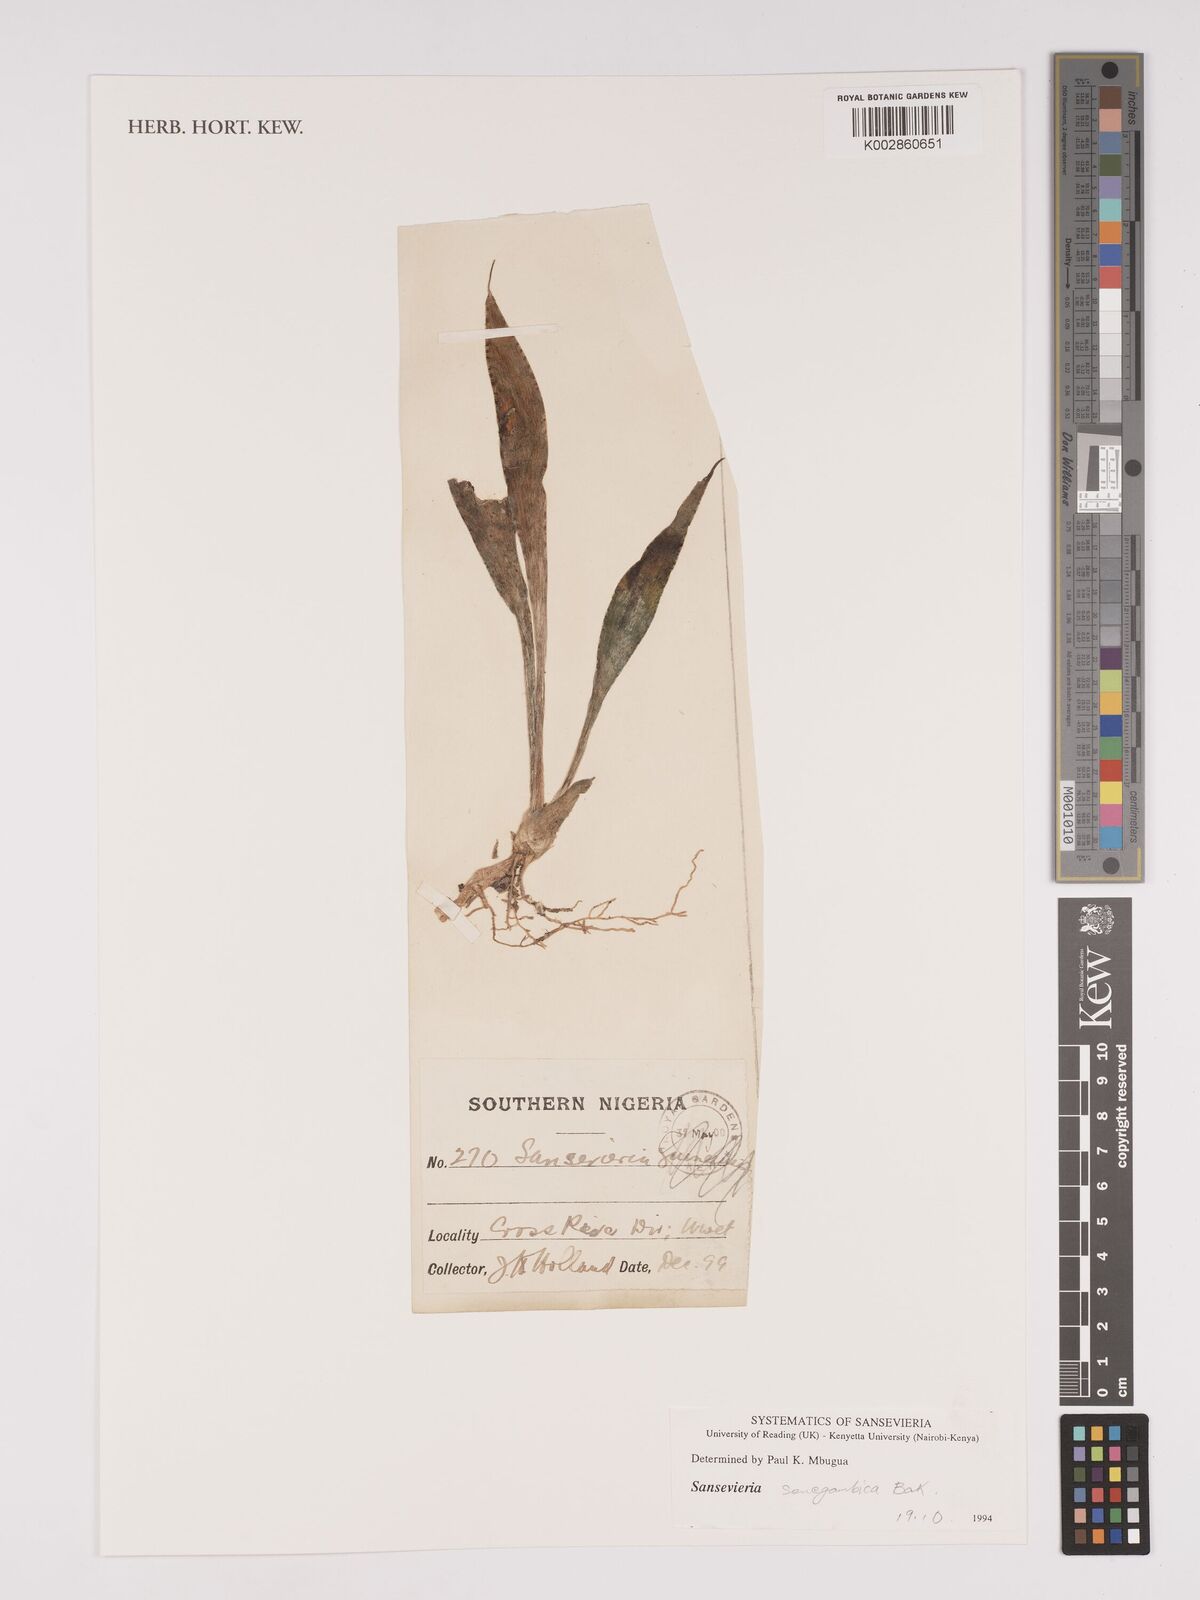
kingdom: Plantae
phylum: Tracheophyta
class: Liliopsida
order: Asparagales
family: Asparagaceae
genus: Dracaena
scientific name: Dracaena senegambica
